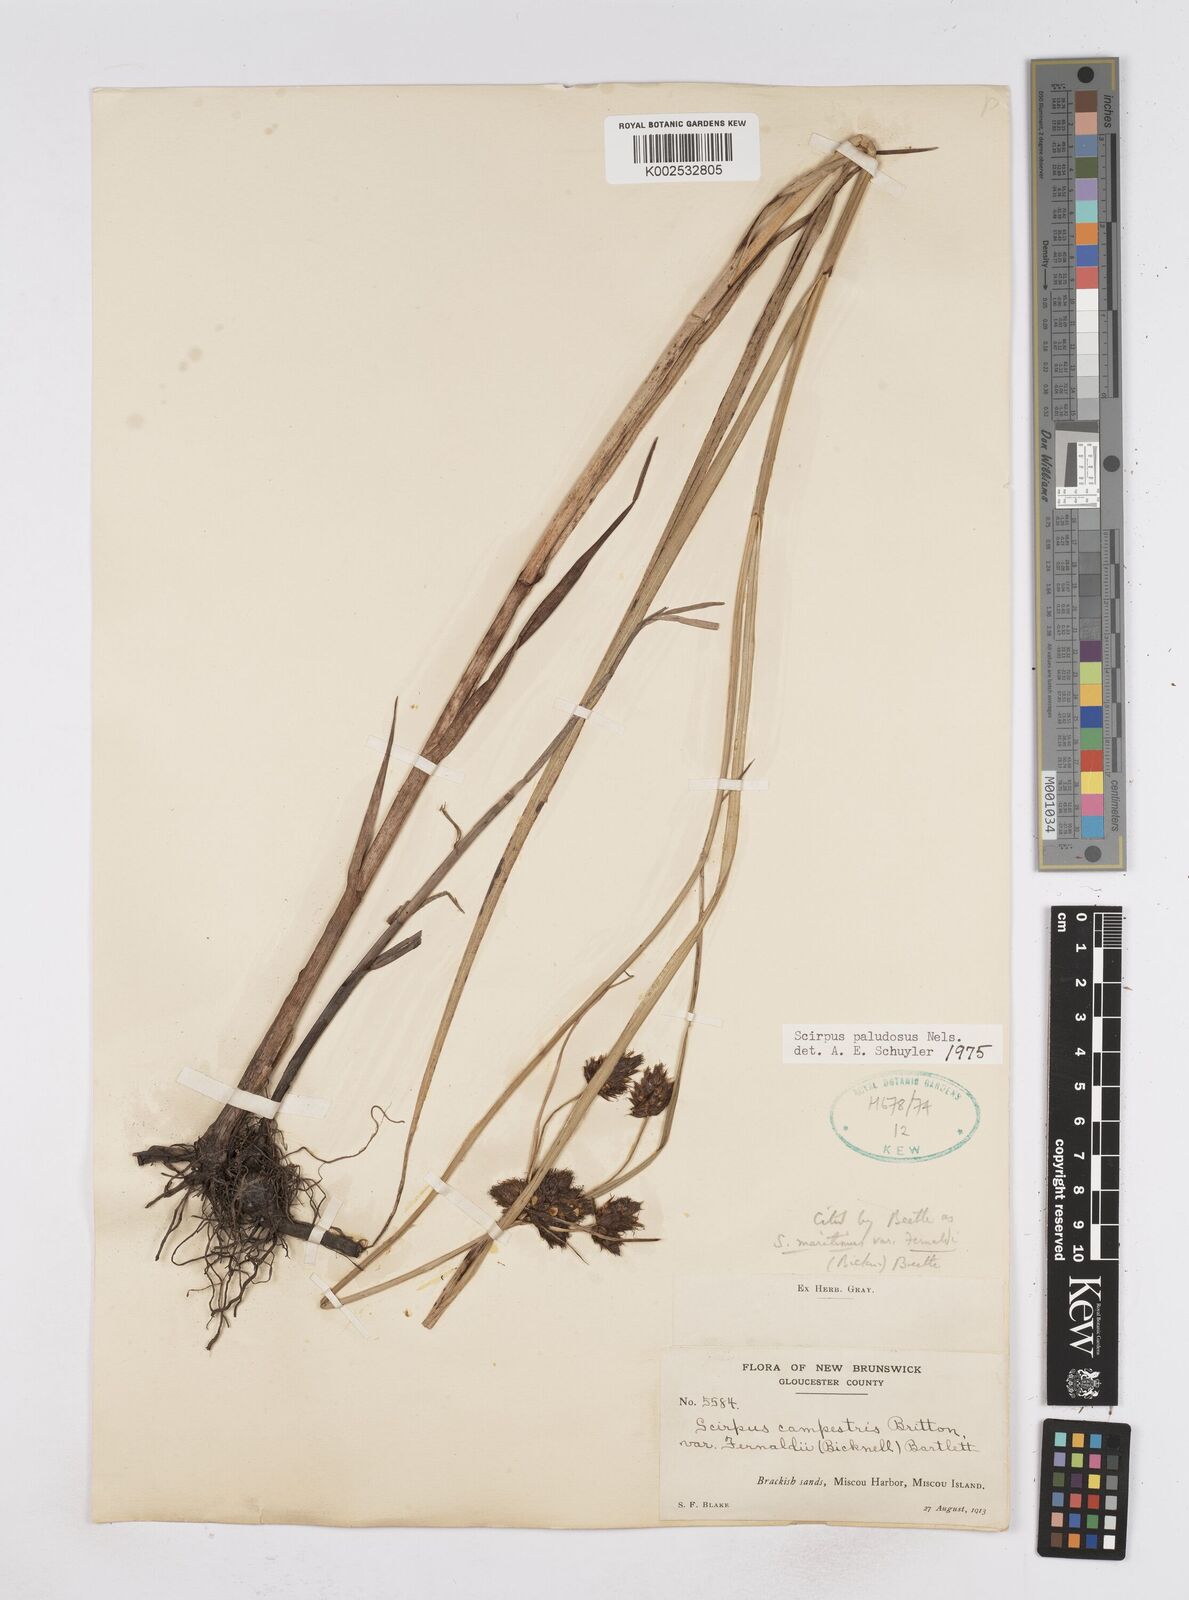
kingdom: Plantae
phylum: Tracheophyta
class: Liliopsida
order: Poales
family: Cyperaceae
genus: Bolboschoenus
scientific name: Bolboschoenus maritimus
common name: Sea club-rush
